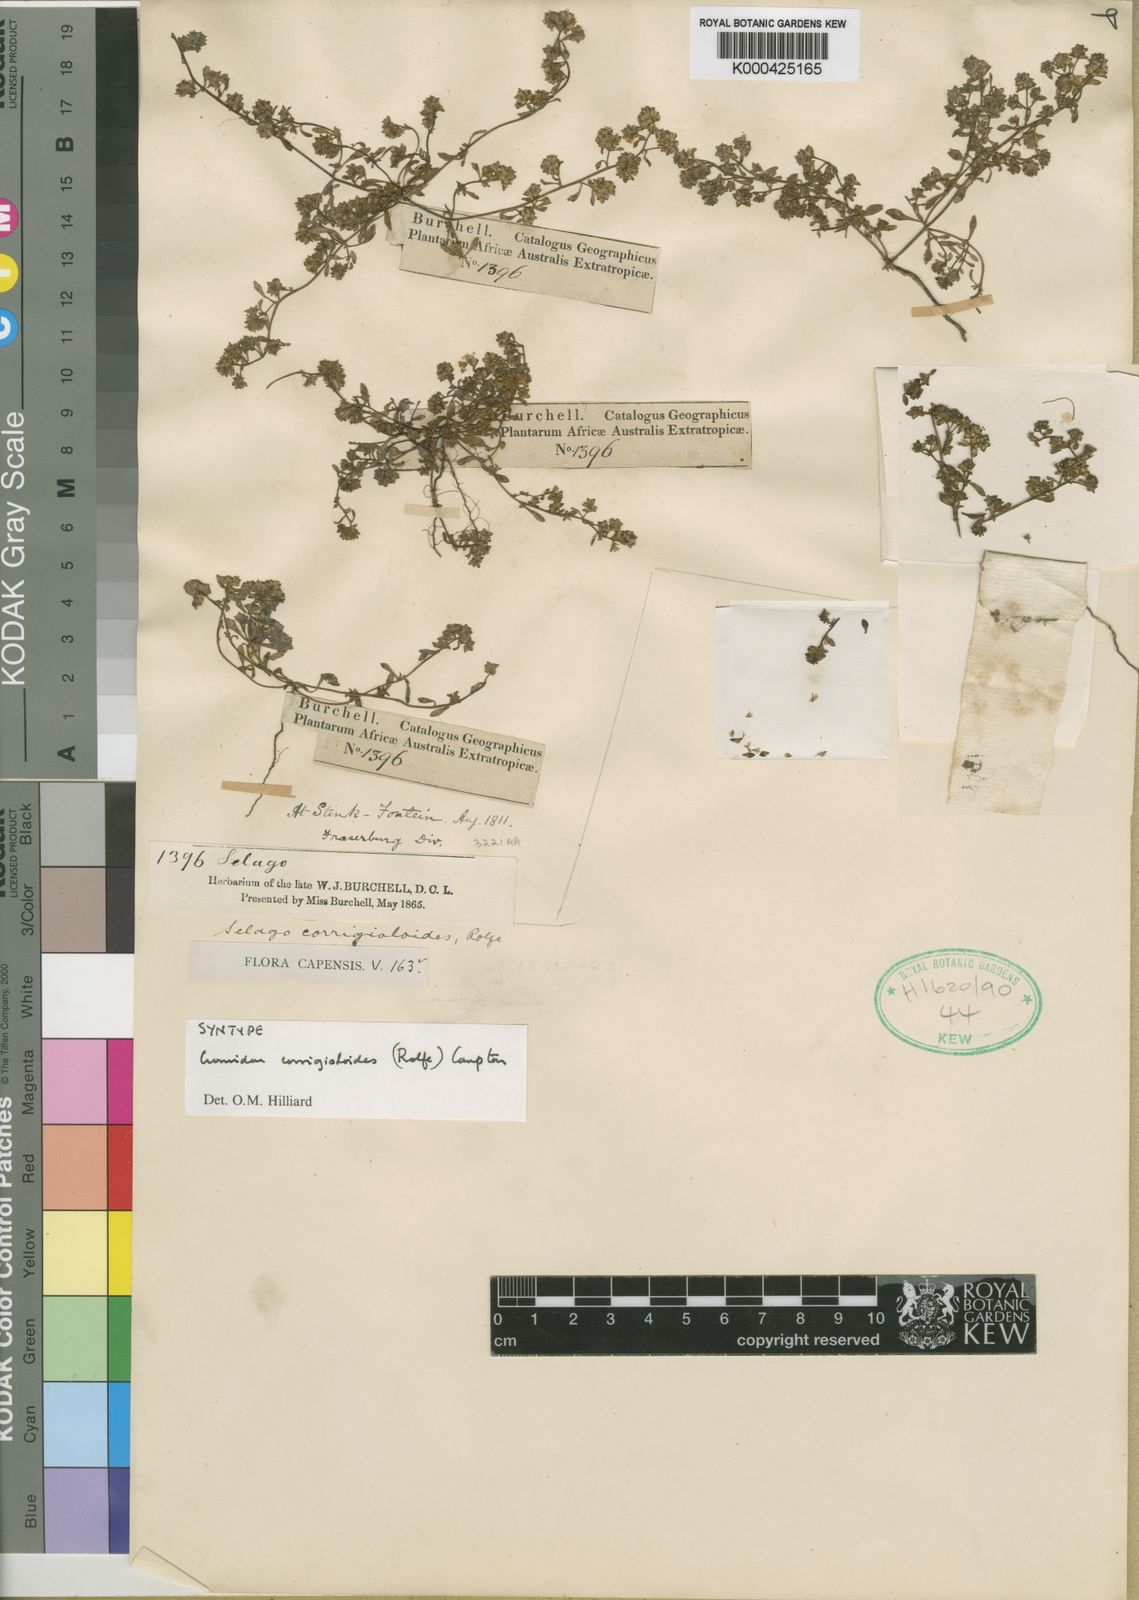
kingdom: Plantae
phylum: Tracheophyta
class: Magnoliopsida
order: Lamiales
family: Scrophulariaceae
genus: Cromidon
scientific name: Cromidon corrigioloides
